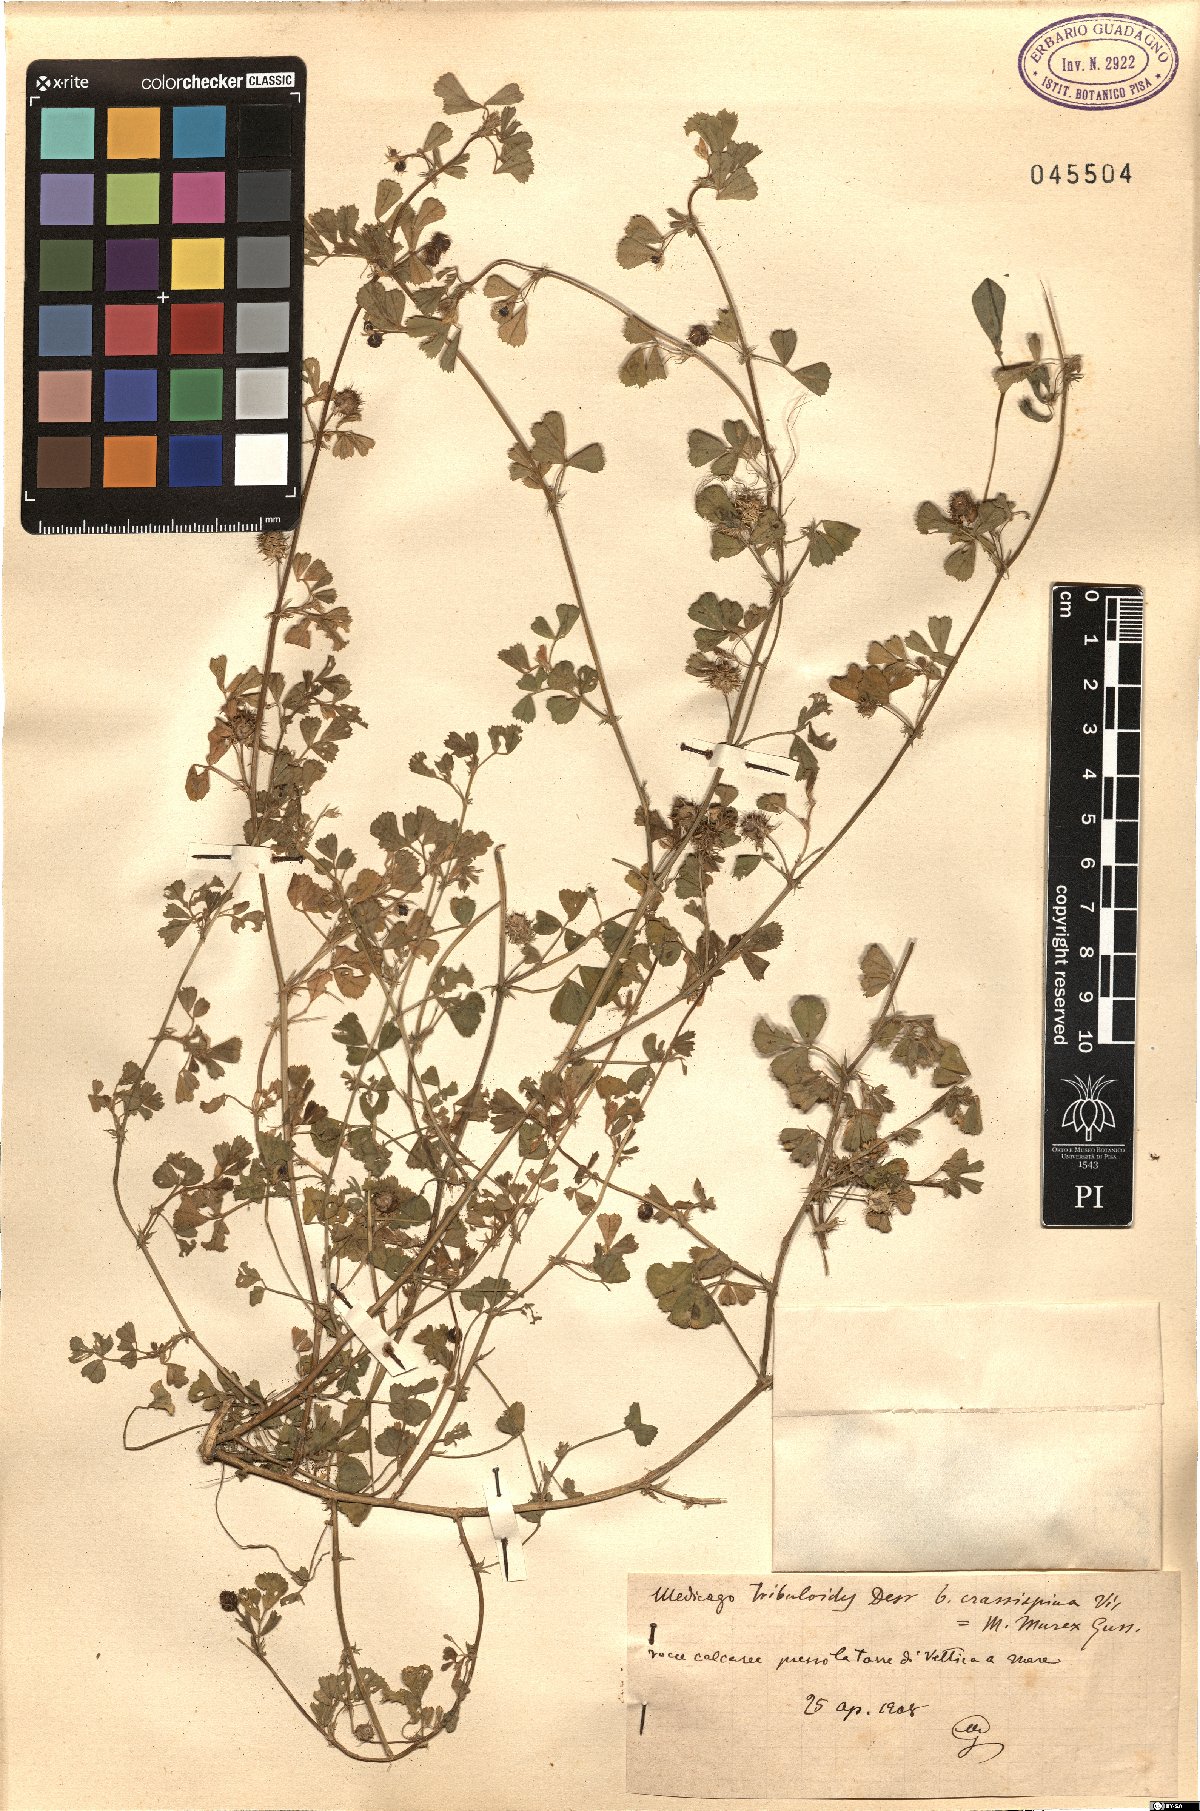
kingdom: Plantae
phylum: Tracheophyta
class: Magnoliopsida
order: Fabales
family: Fabaceae
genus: Medicago
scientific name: Medicago truncatula
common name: Strong-spined medick
